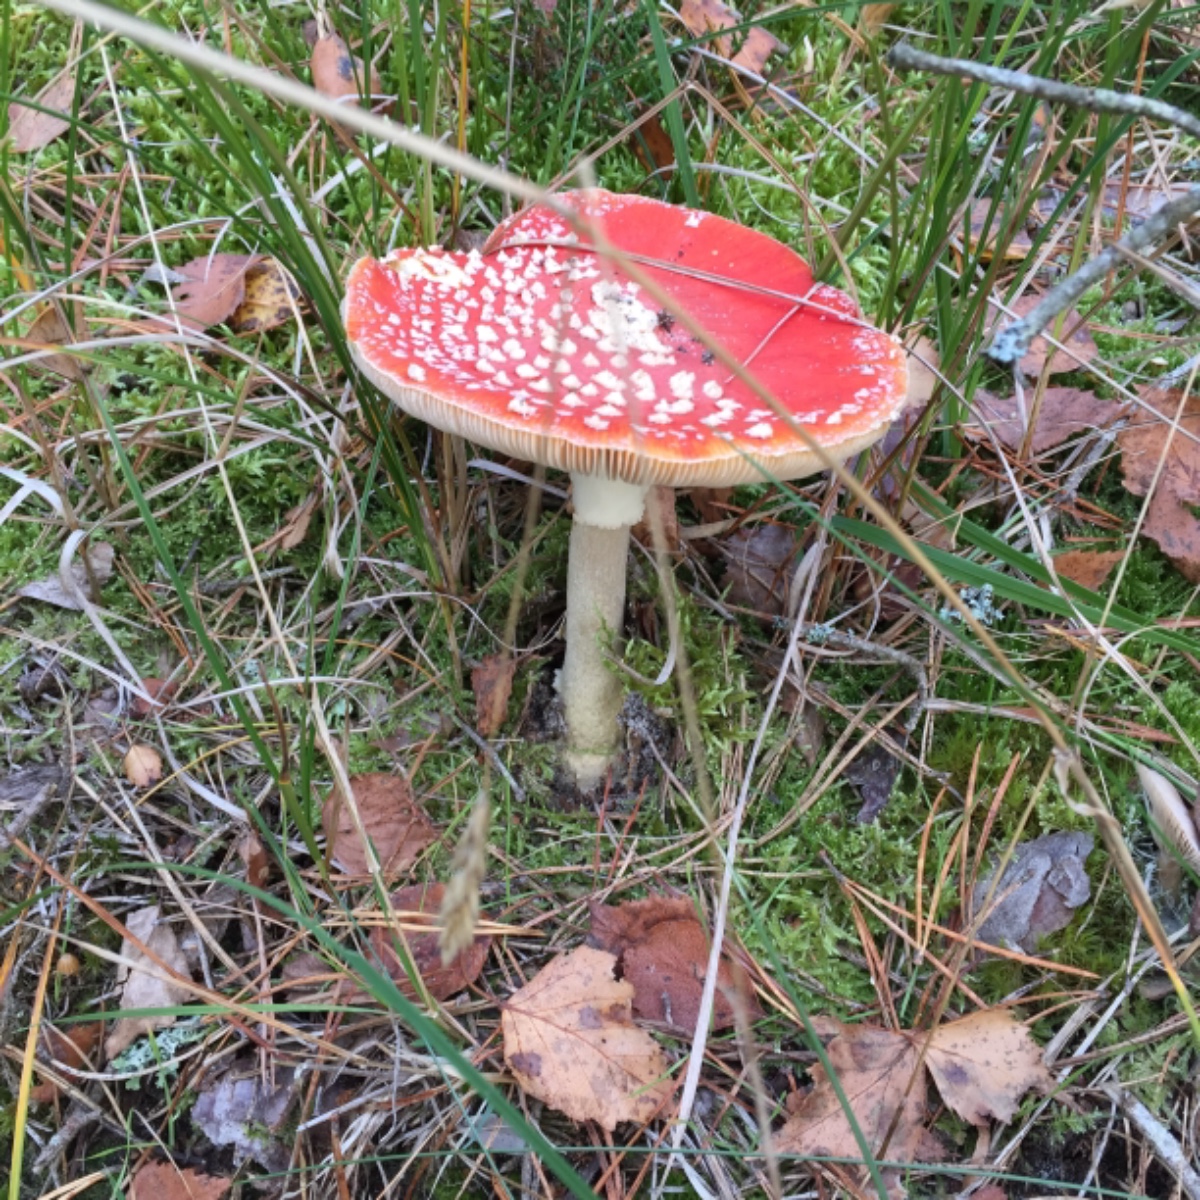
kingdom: Fungi
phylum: Basidiomycota
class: Agaricomycetes
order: Agaricales
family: Amanitaceae
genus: Amanita
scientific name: Amanita muscaria
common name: rød fluesvamp
